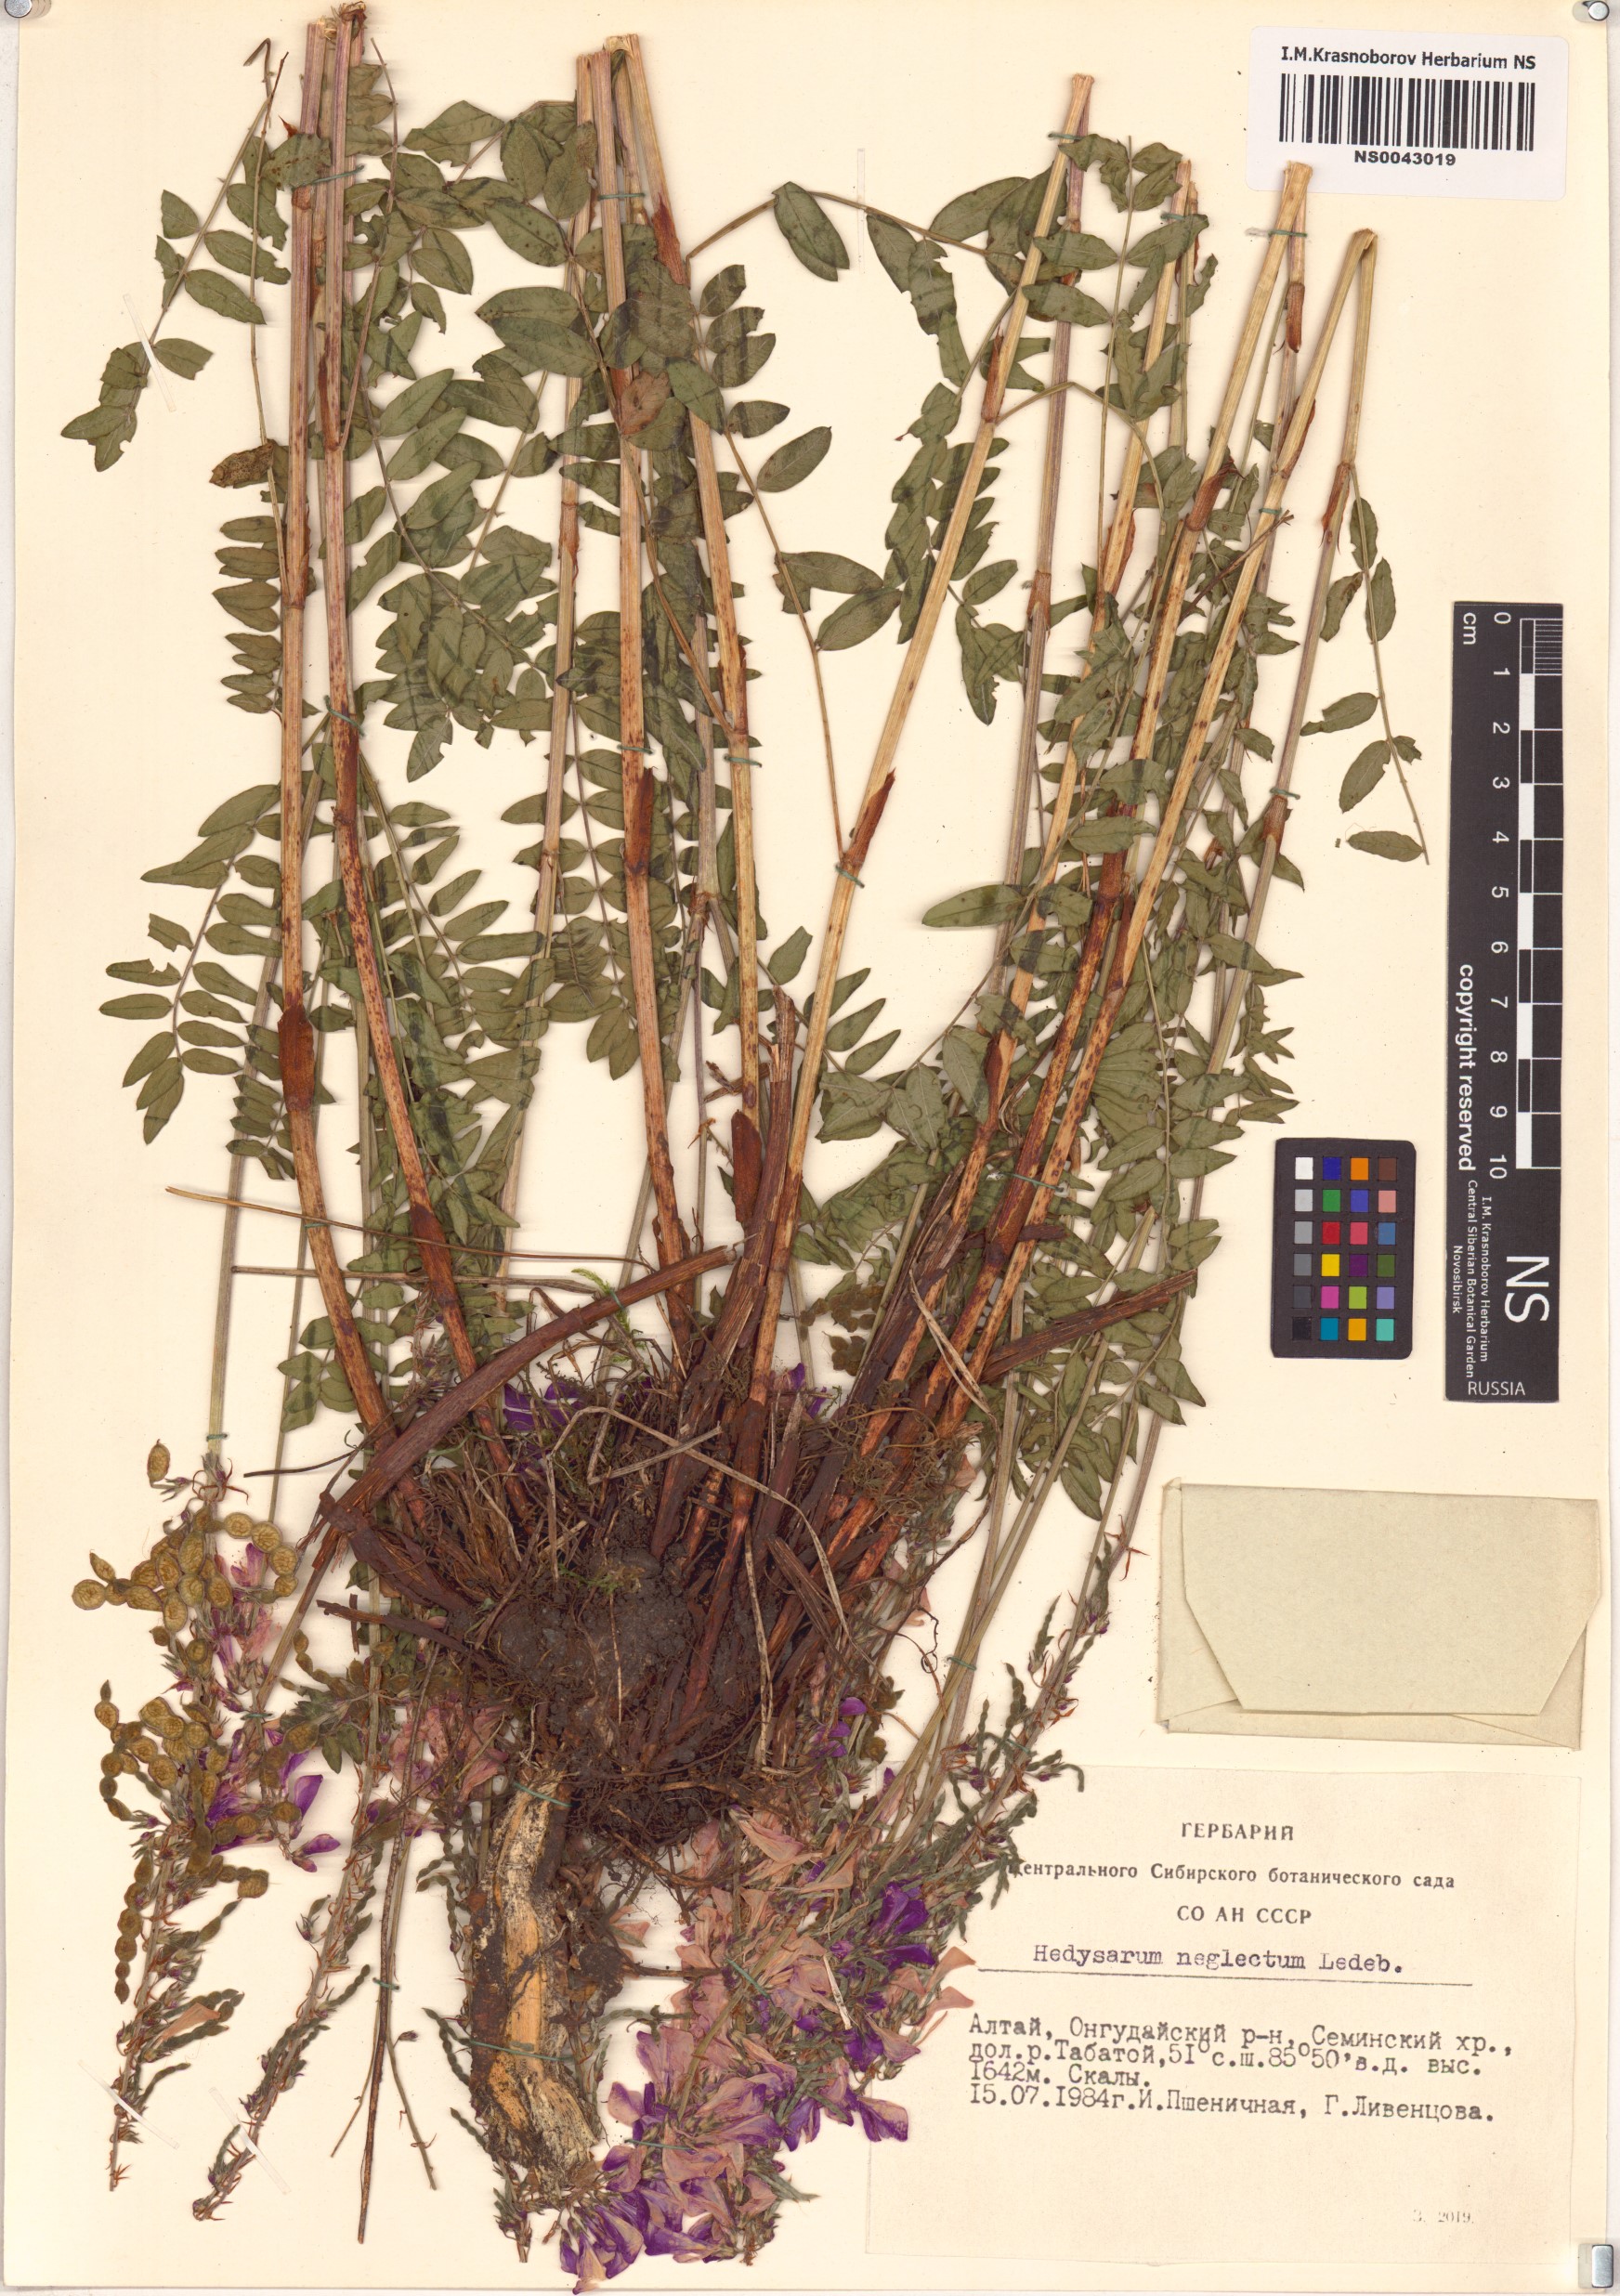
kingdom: Plantae
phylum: Tracheophyta
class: Magnoliopsida
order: Fabales
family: Fabaceae
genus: Hedysarum
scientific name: Hedysarum neglectum
